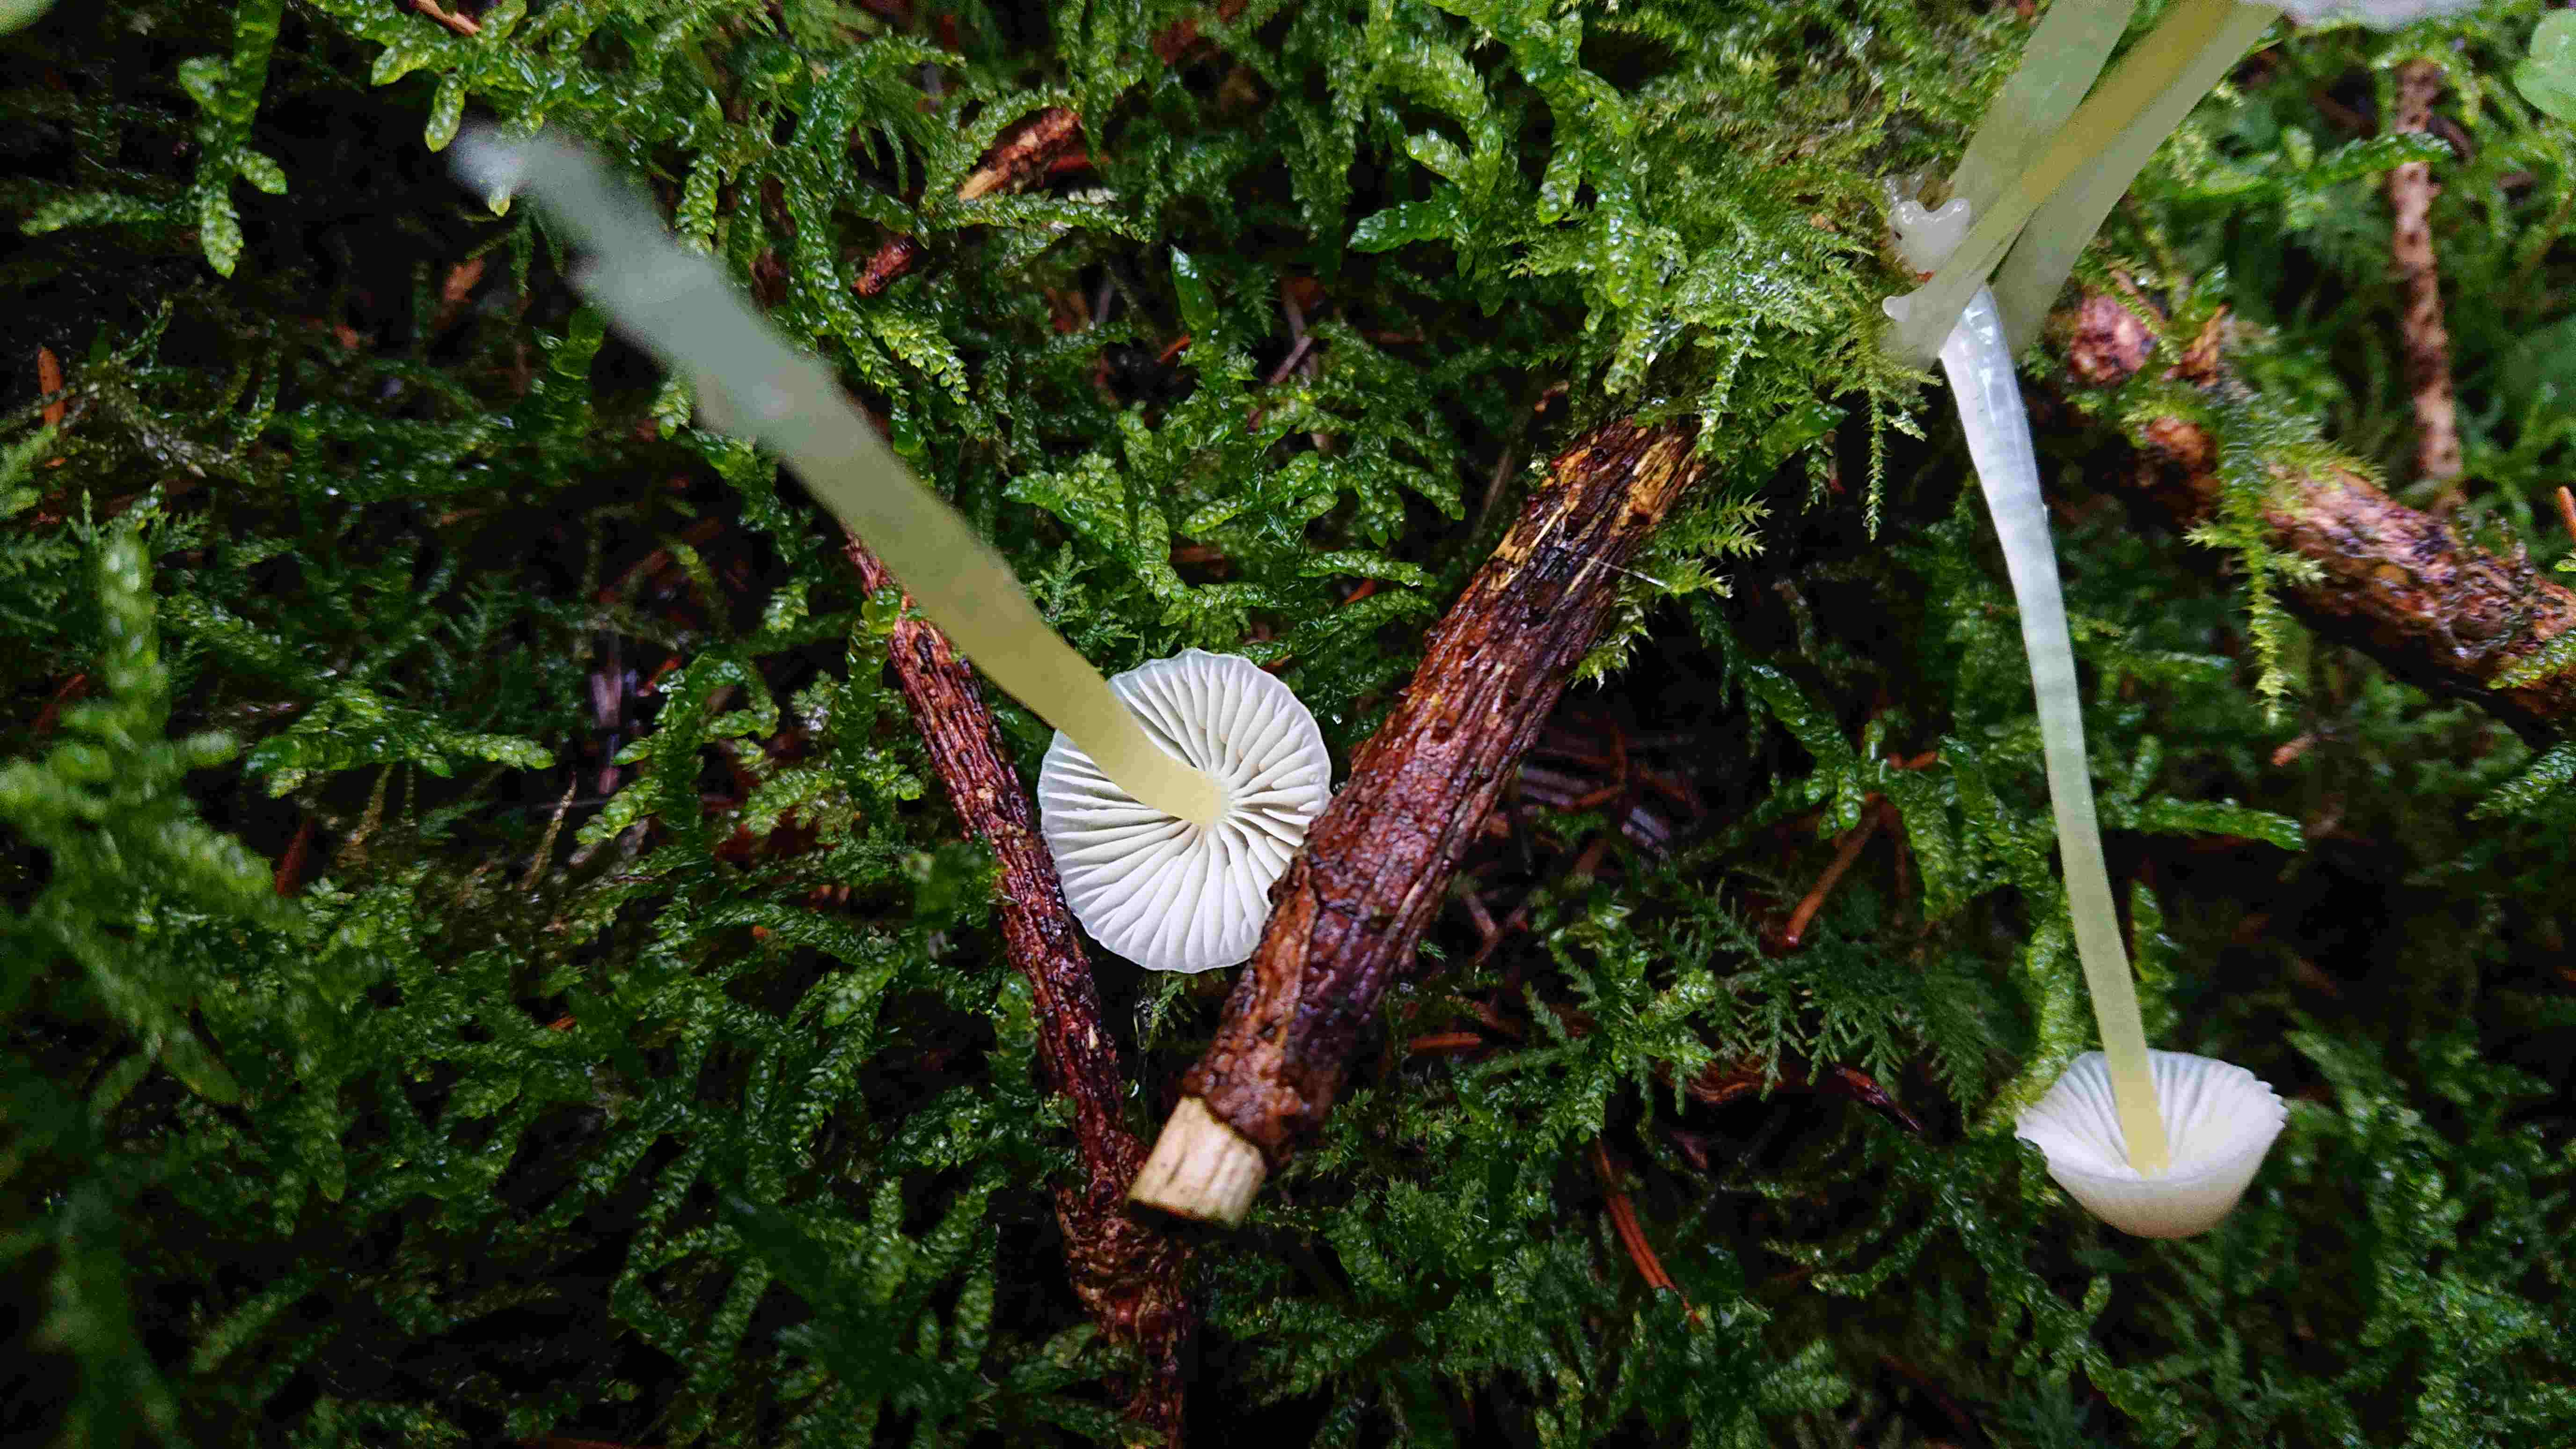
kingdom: Fungi
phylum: Basidiomycota
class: Agaricomycetes
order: Agaricales
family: Mycenaceae
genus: Mycena
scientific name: Mycena epipterygia
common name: gulstokket huesvamp
